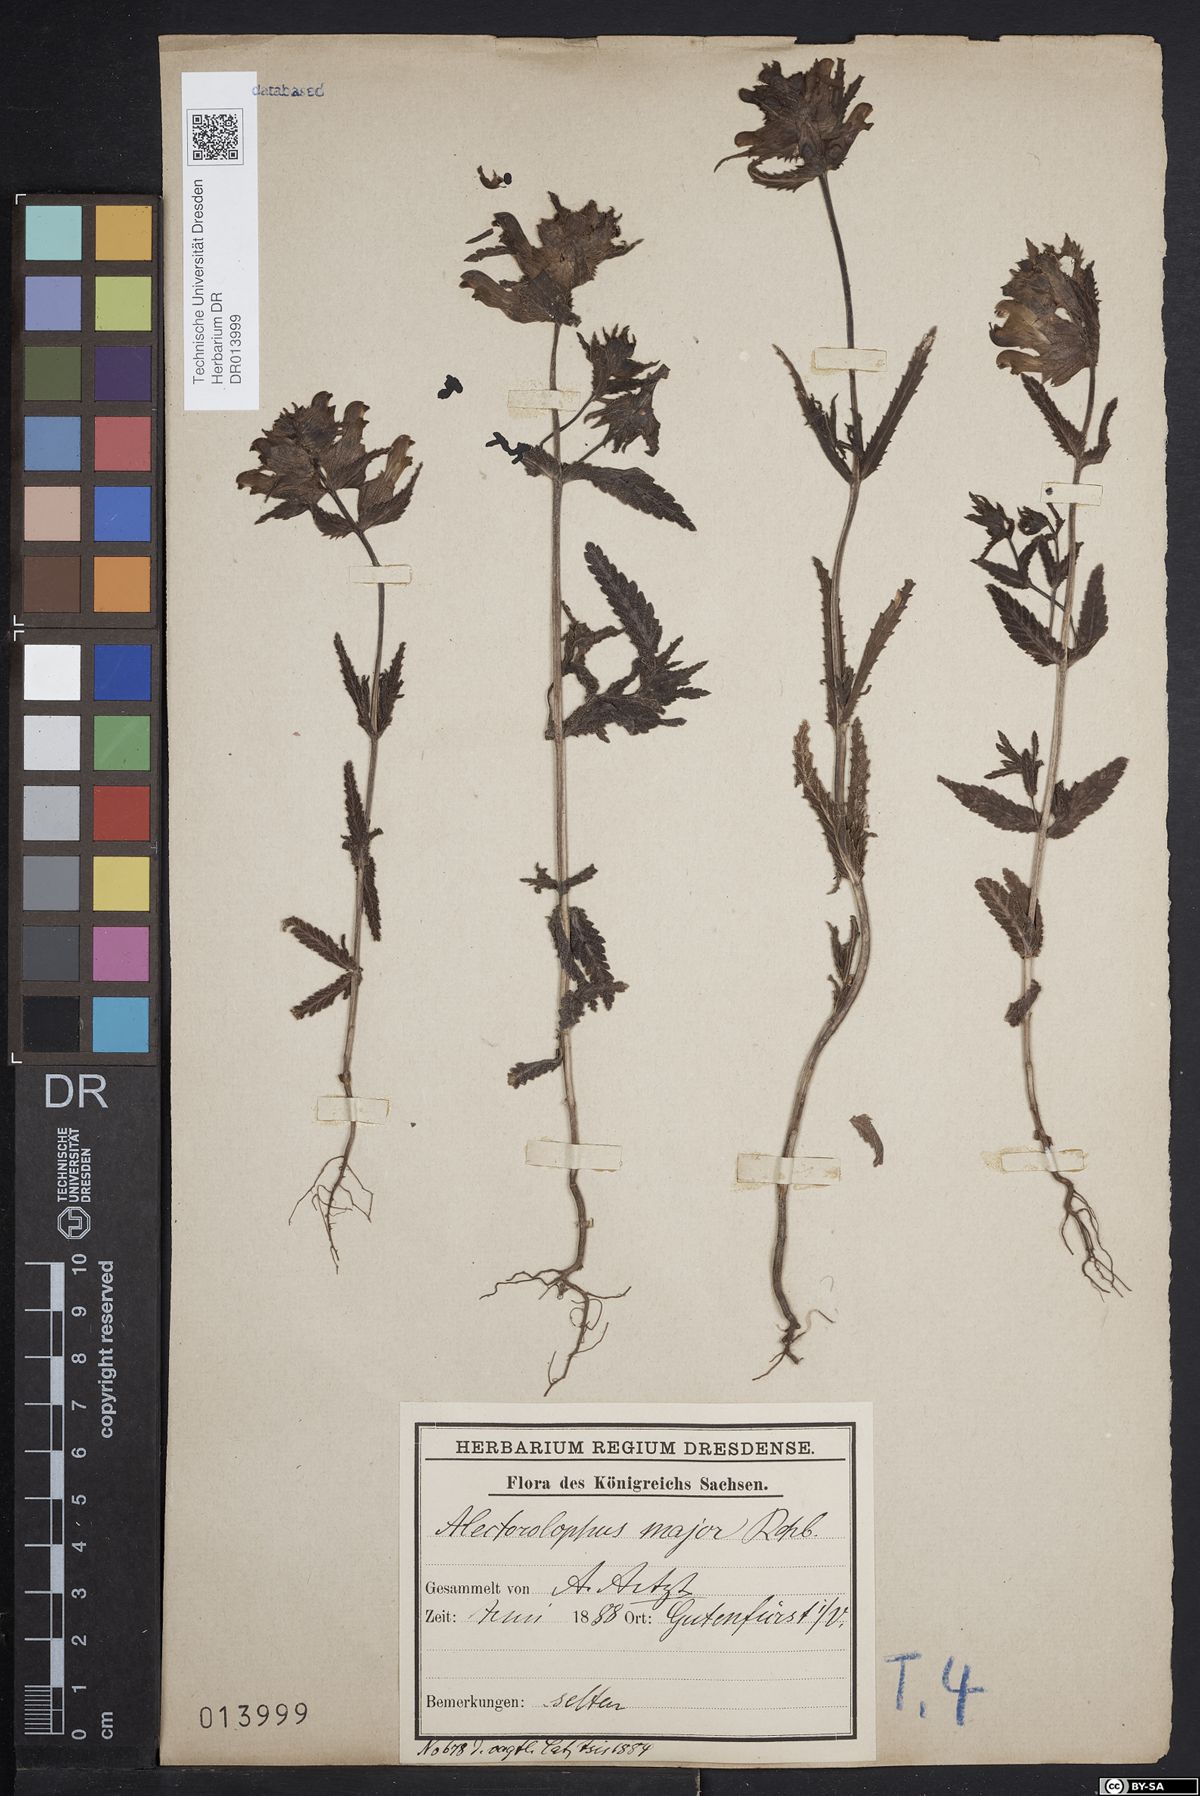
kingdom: Plantae
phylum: Tracheophyta
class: Magnoliopsida
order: Lamiales
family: Orobanchaceae
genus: Rhinanthus
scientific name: Rhinanthus serotinus
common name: Late-flowering yellow rattle
